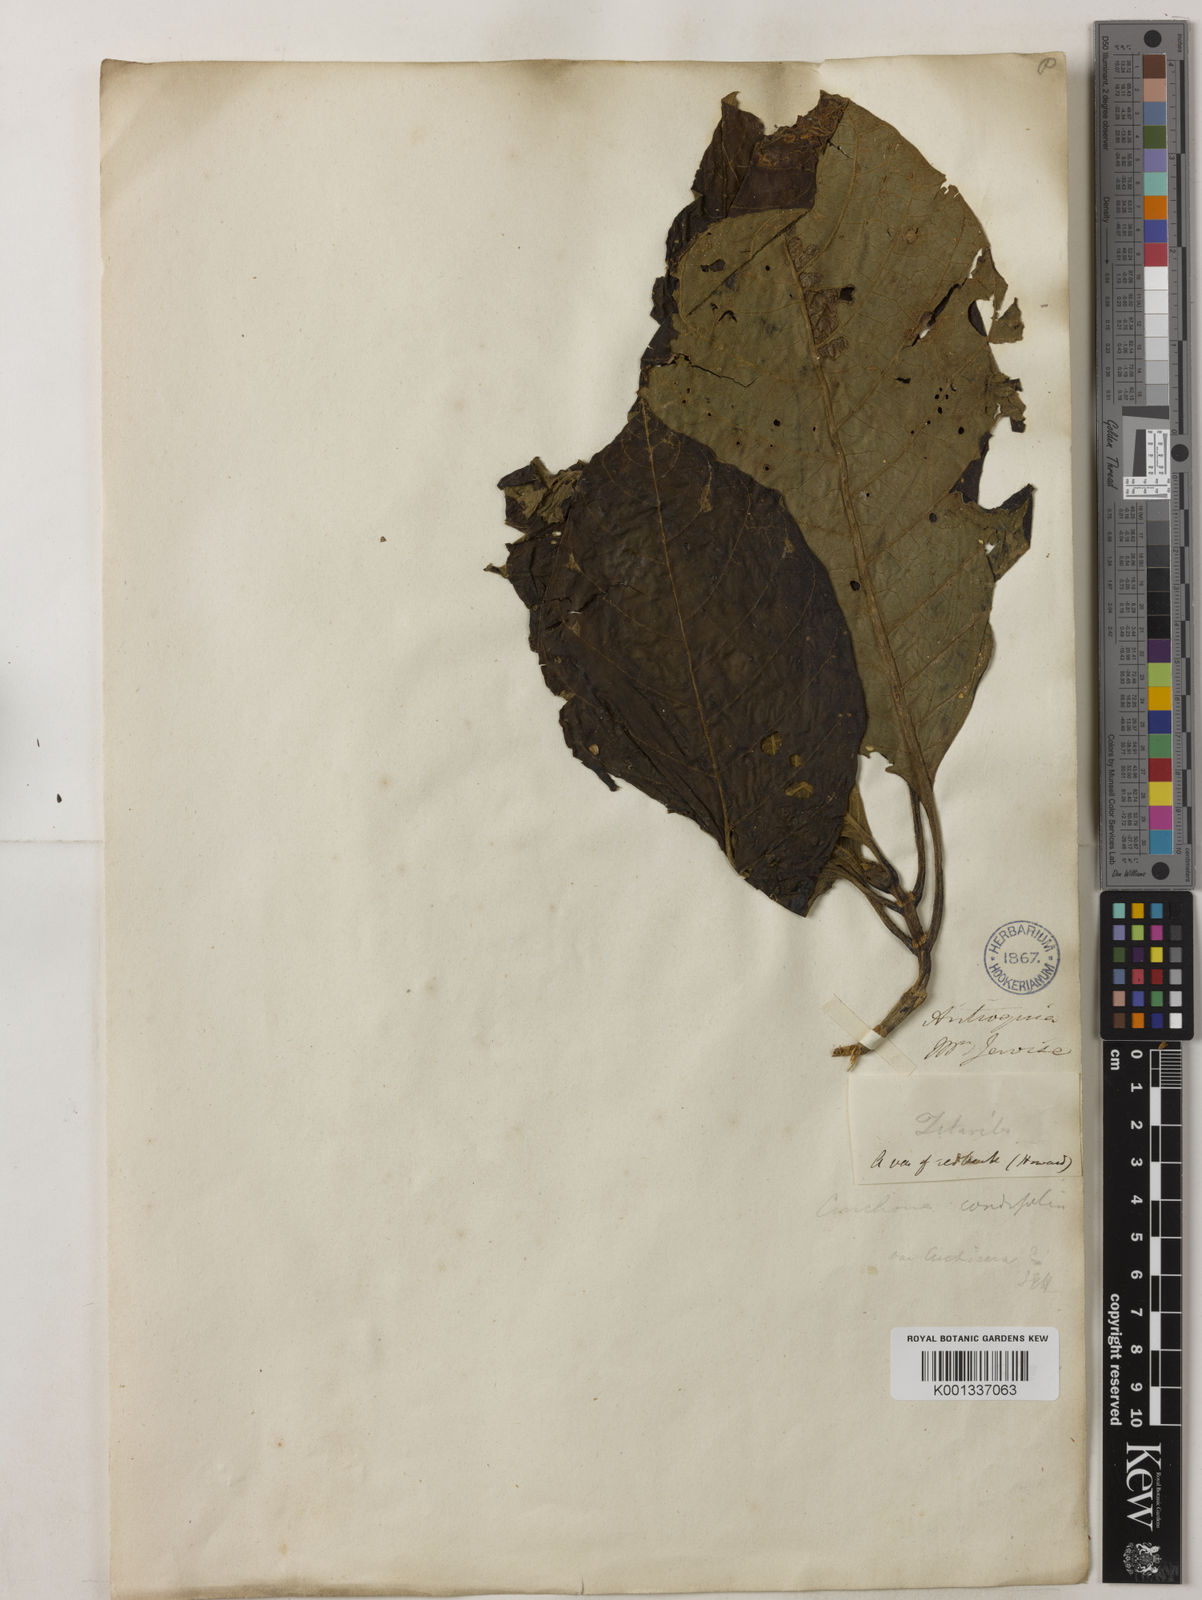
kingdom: Plantae
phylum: Tracheophyta
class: Magnoliopsida
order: Gentianales
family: Rubiaceae
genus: Cinchona
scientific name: Cinchona pubescens
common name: Quinine
